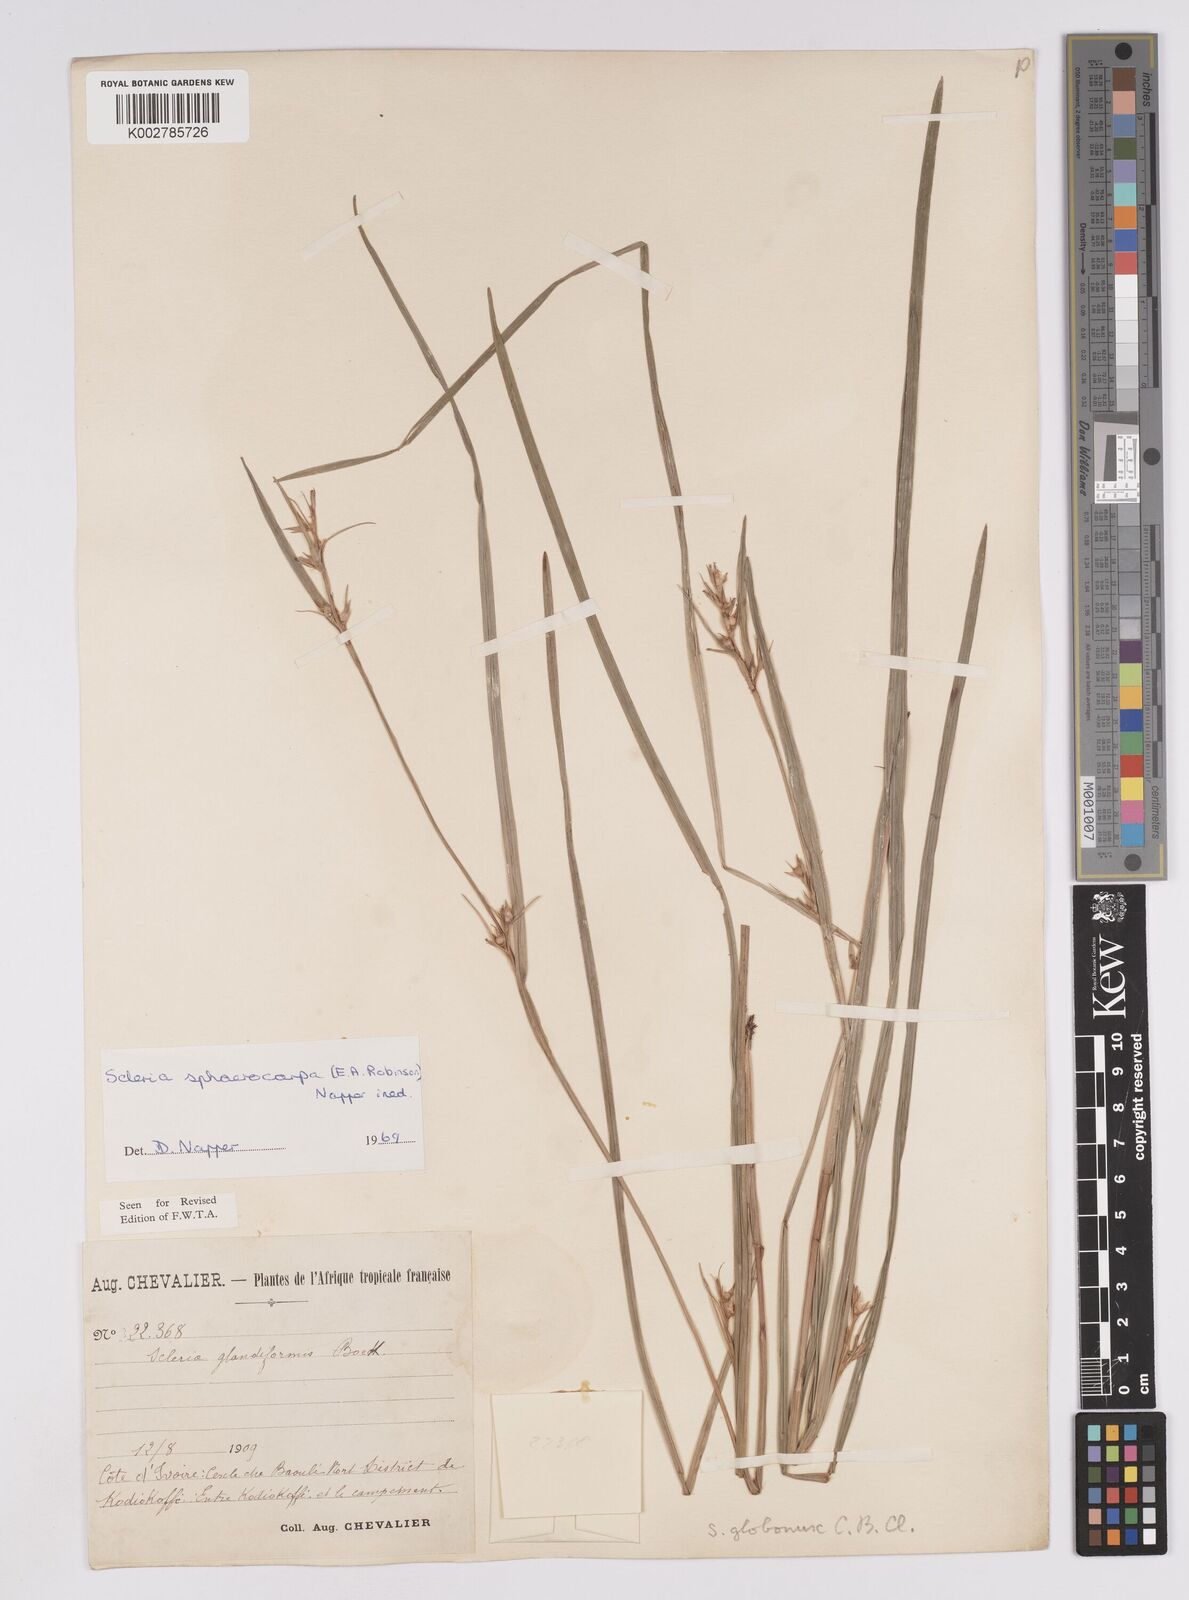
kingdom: Plantae
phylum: Tracheophyta
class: Liliopsida
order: Poales
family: Cyperaceae
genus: Scleria
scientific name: Scleria tessellata
